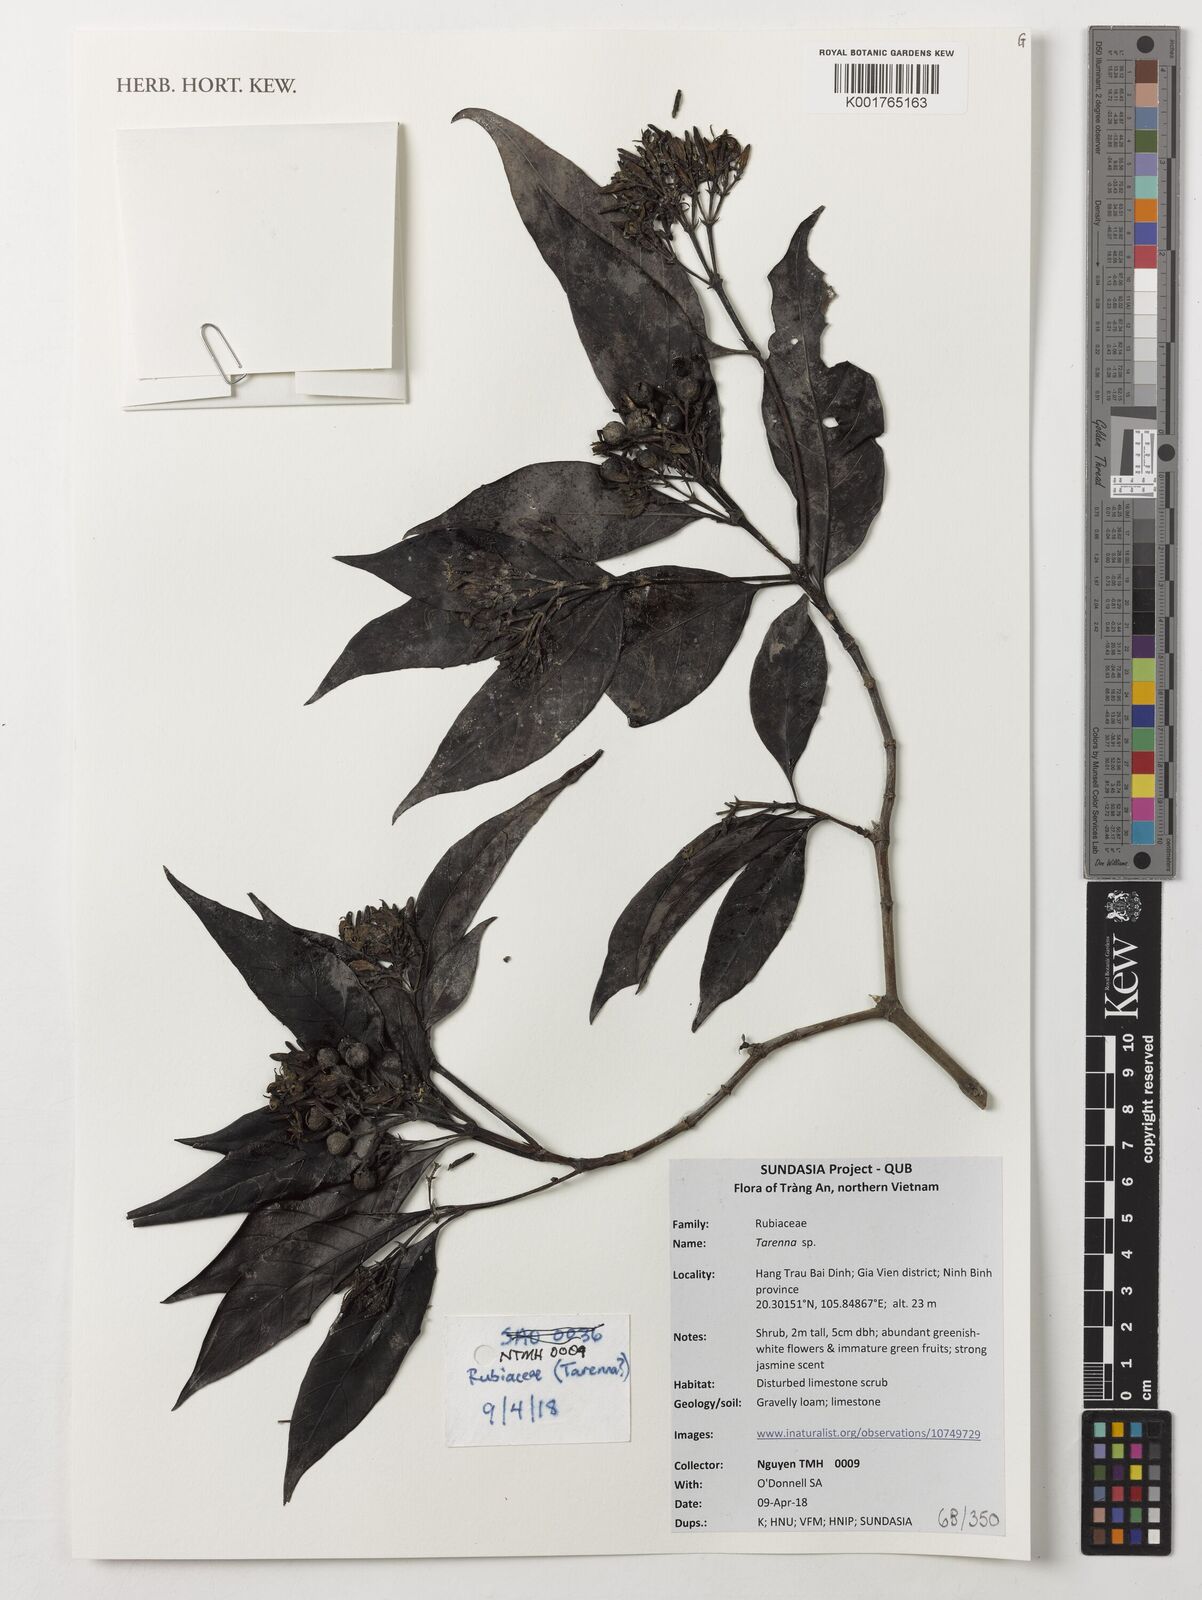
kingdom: Plantae
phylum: Tracheophyta
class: Magnoliopsida
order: Gentianales
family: Rubiaceae
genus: Tarenna
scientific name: Tarenna
